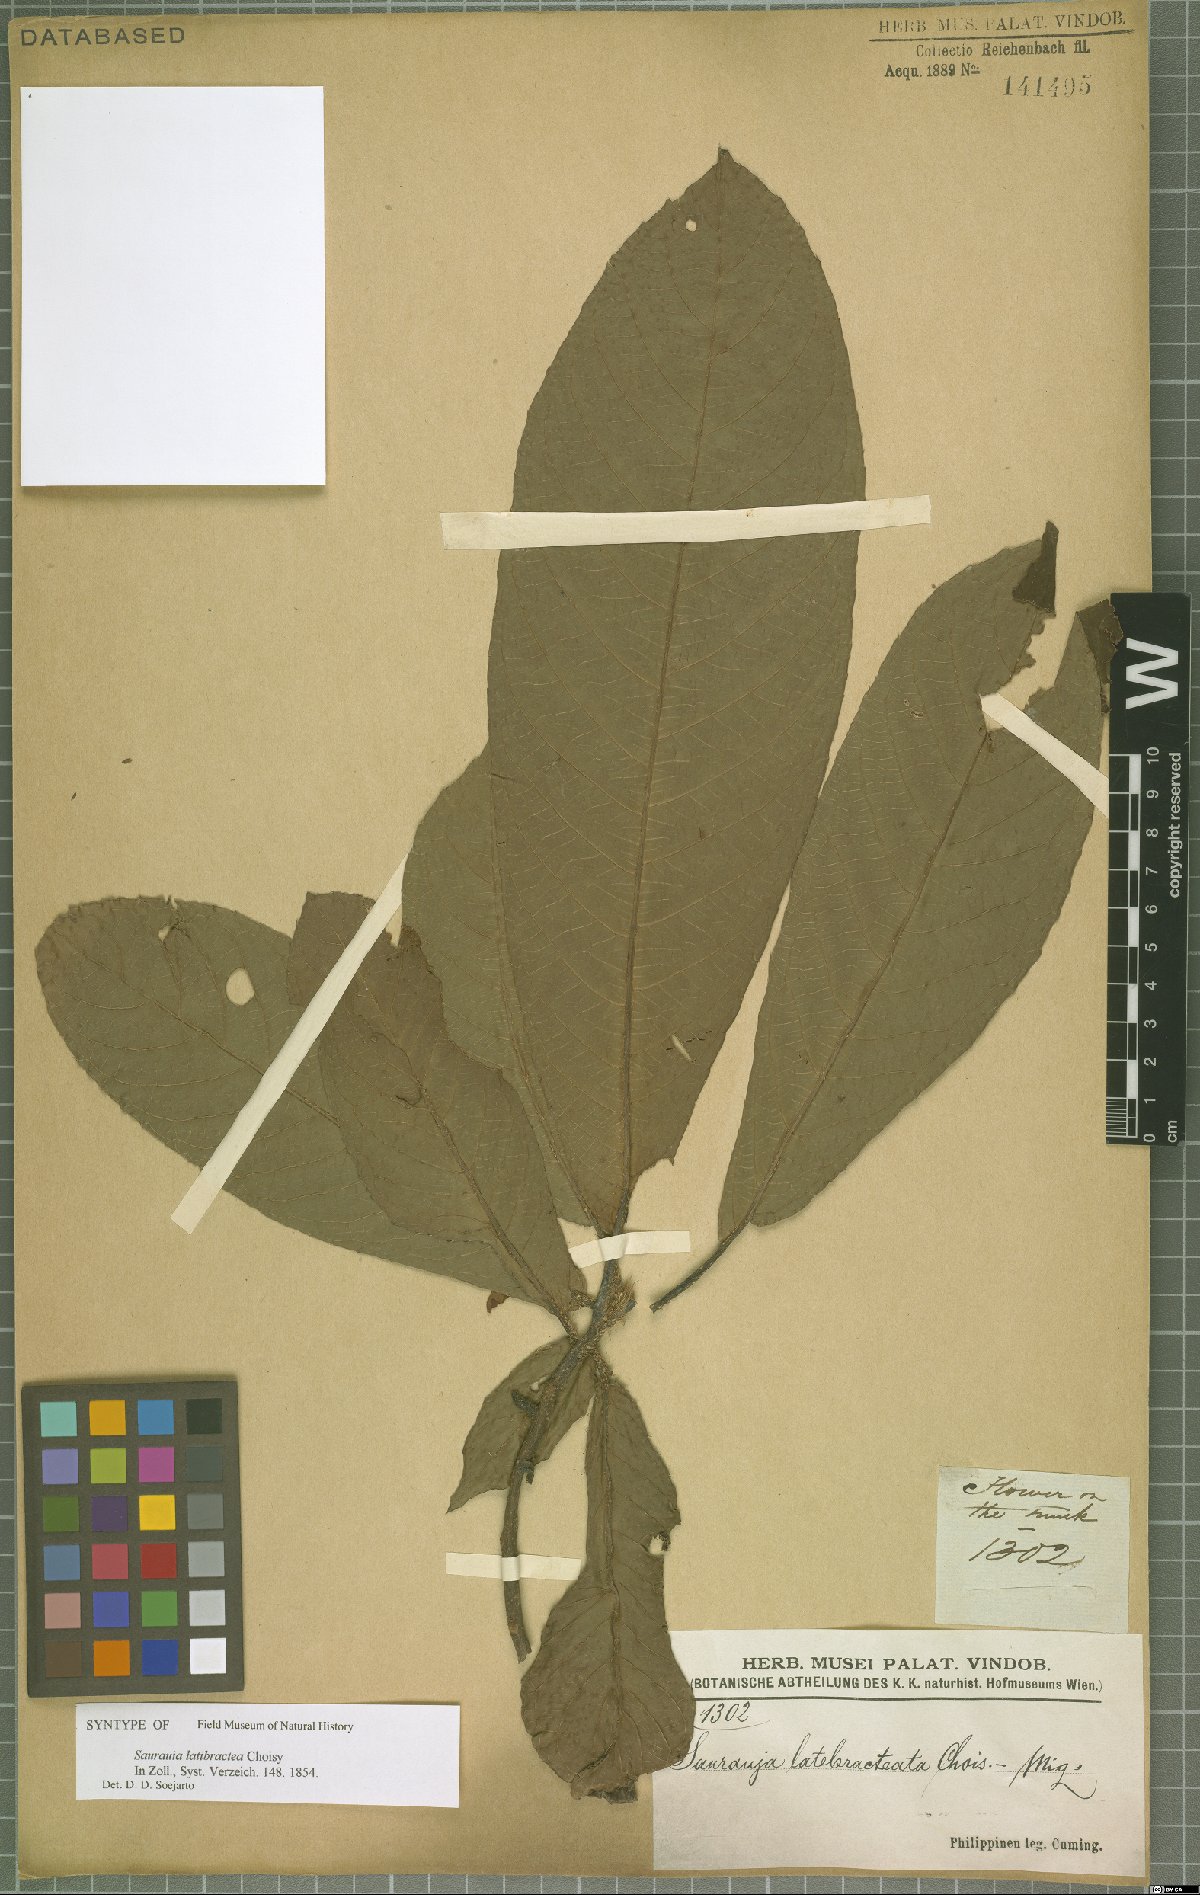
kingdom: Plantae
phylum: Tracheophyta
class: Magnoliopsida
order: Ericales
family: Actinidiaceae
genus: Saurauia
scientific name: Saurauia latibractea
